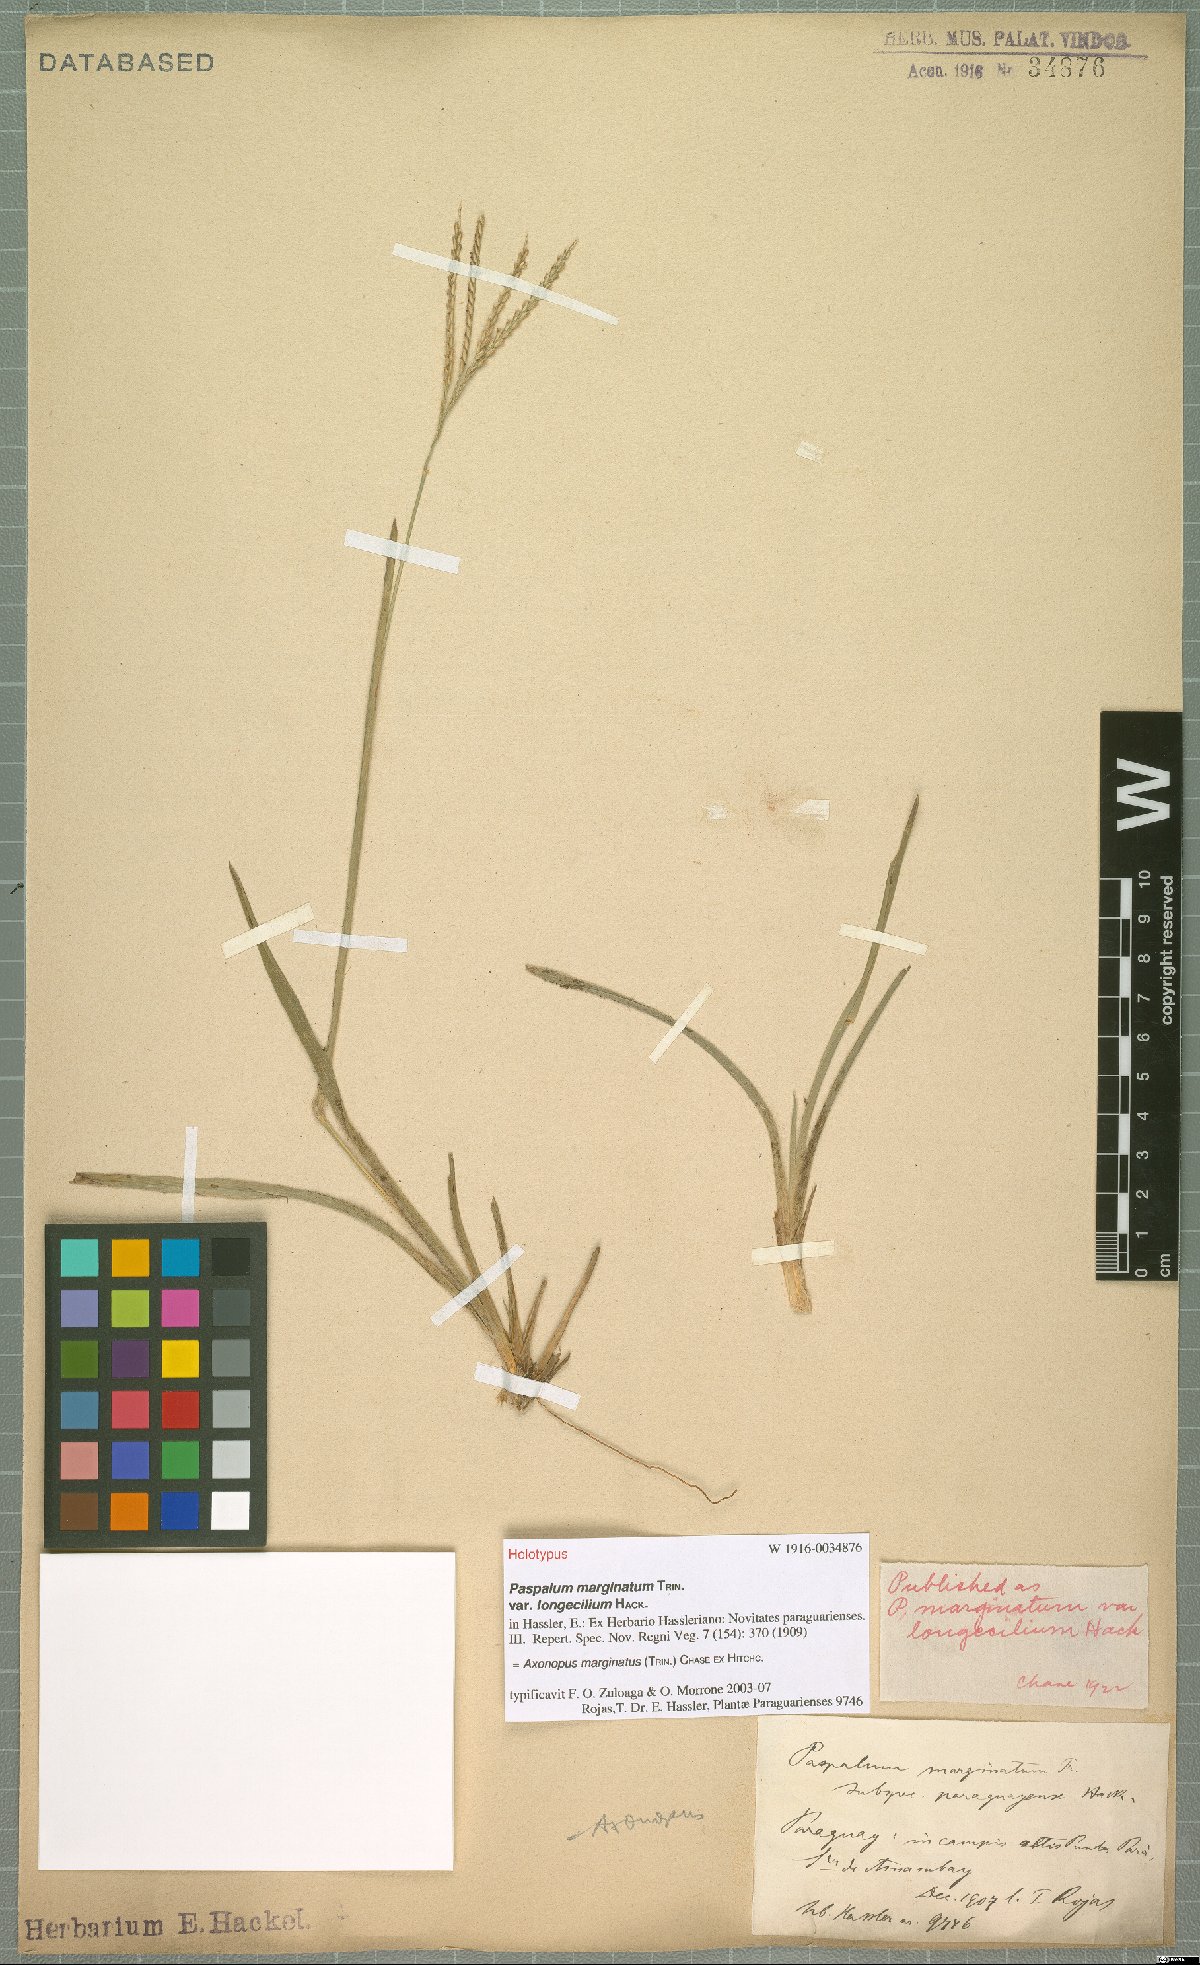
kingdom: Plantae
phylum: Tracheophyta
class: Liliopsida
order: Poales
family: Poaceae
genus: Axonopus
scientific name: Axonopus marginatus
